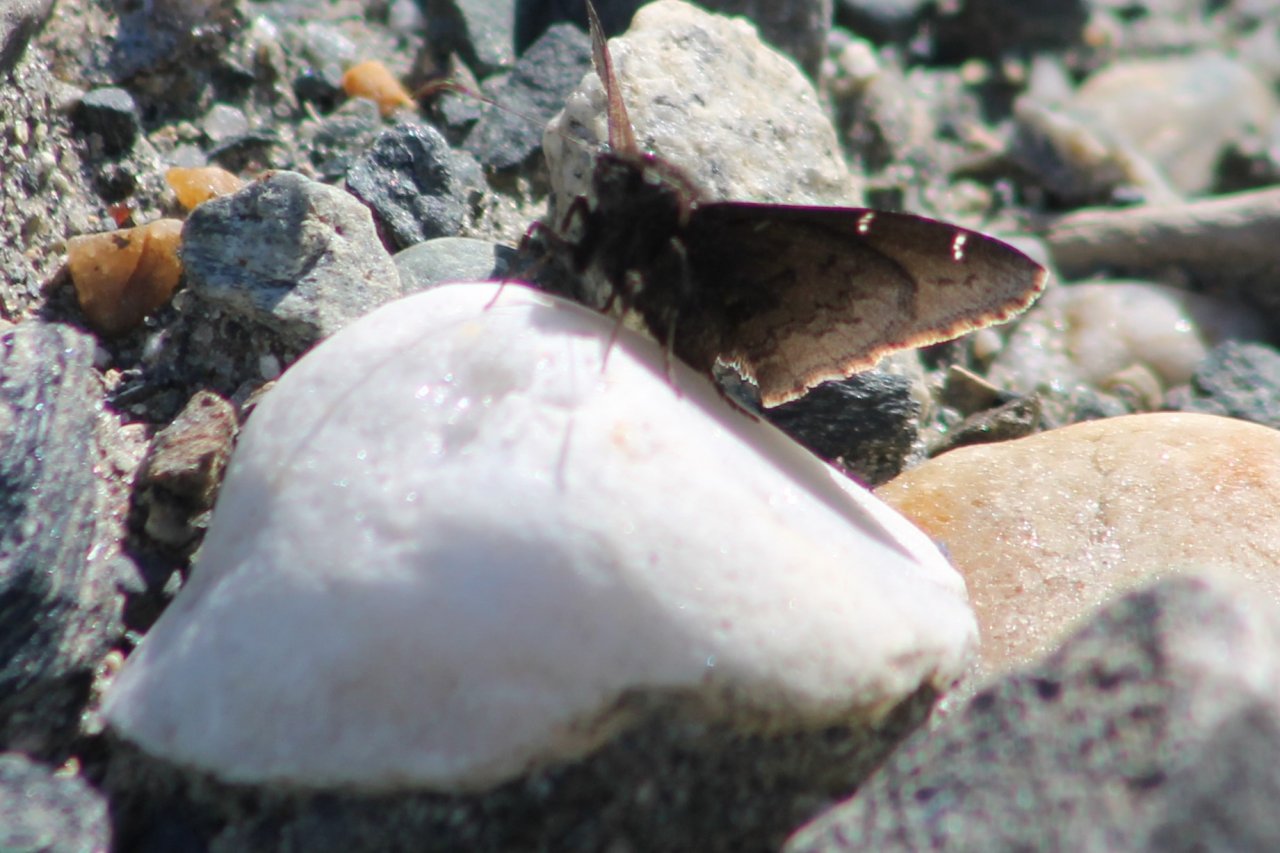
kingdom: Animalia
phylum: Arthropoda
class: Insecta
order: Lepidoptera
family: Hesperiidae
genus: Autochton
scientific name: Autochton
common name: Northern Cloudywing
